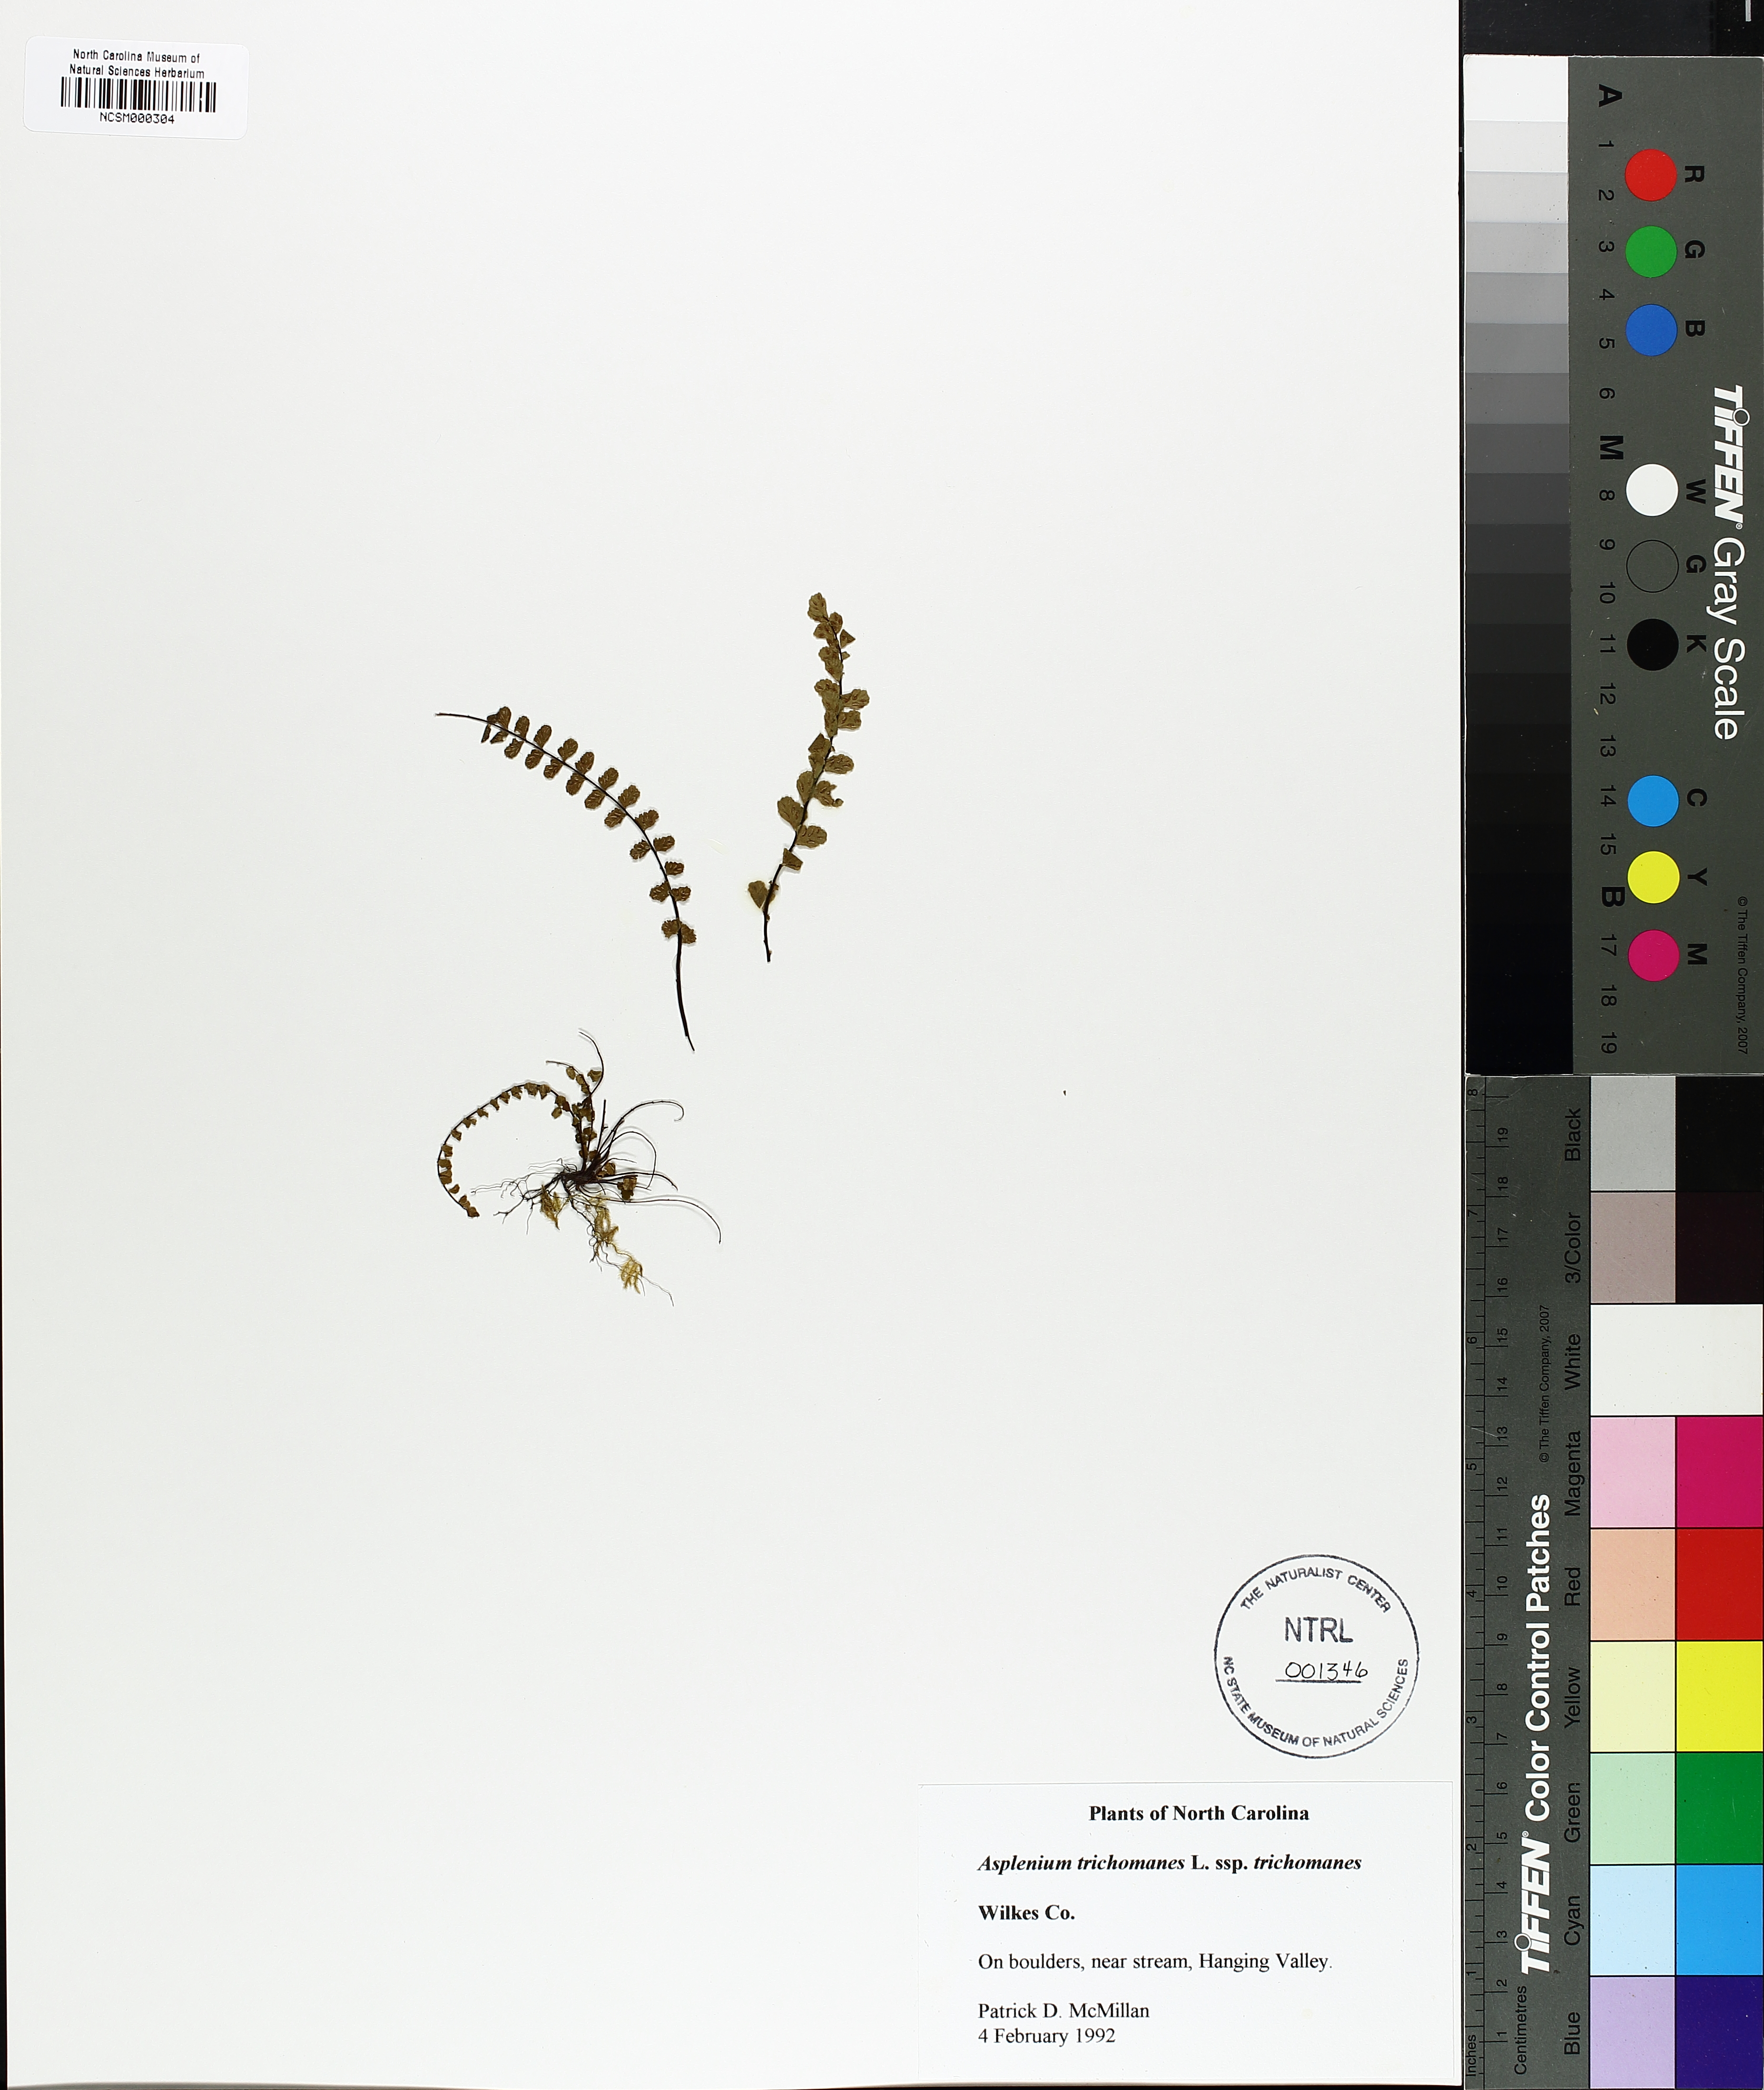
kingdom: Plantae
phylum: Tracheophyta
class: Polypodiopsida
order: Polypodiales
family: Aspleniaceae
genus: Asplenium
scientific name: Asplenium trichomanes
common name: Maidenhair spleenwort
